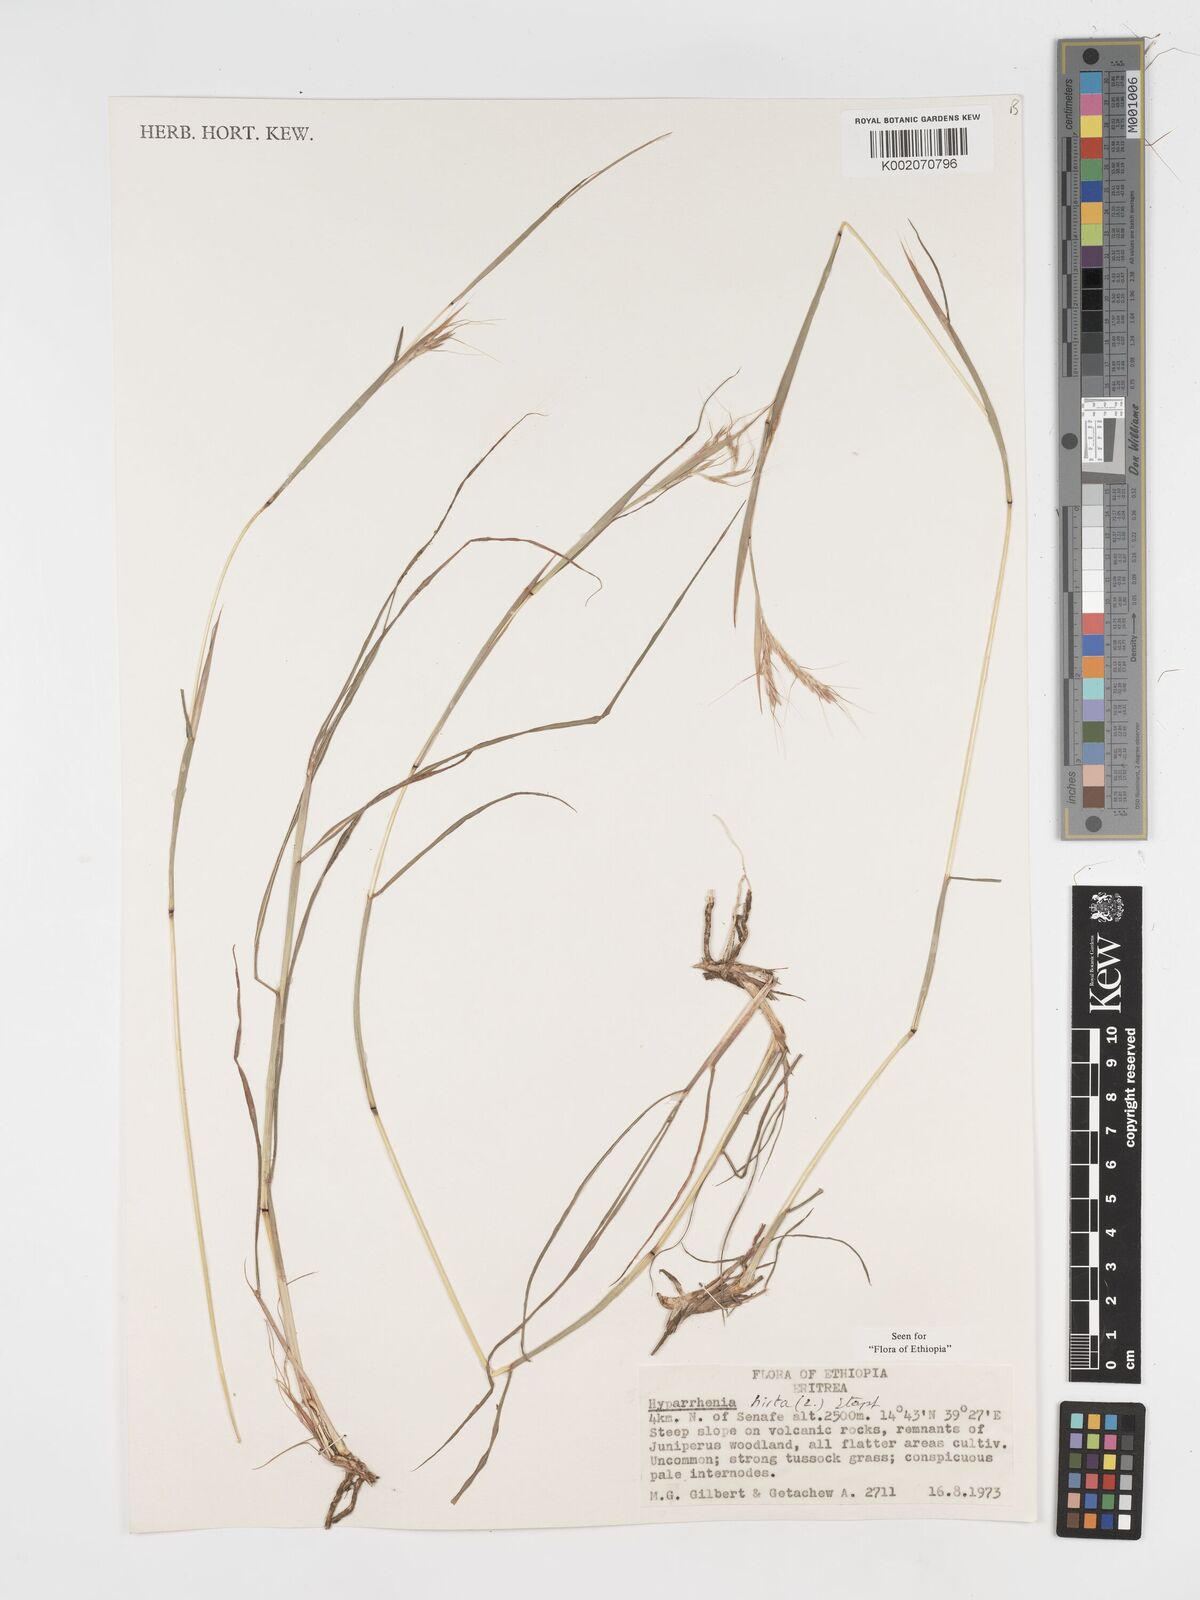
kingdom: Plantae
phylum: Tracheophyta
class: Liliopsida
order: Poales
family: Poaceae
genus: Hyparrhenia
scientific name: Hyparrhenia hirta
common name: Thatching grass
